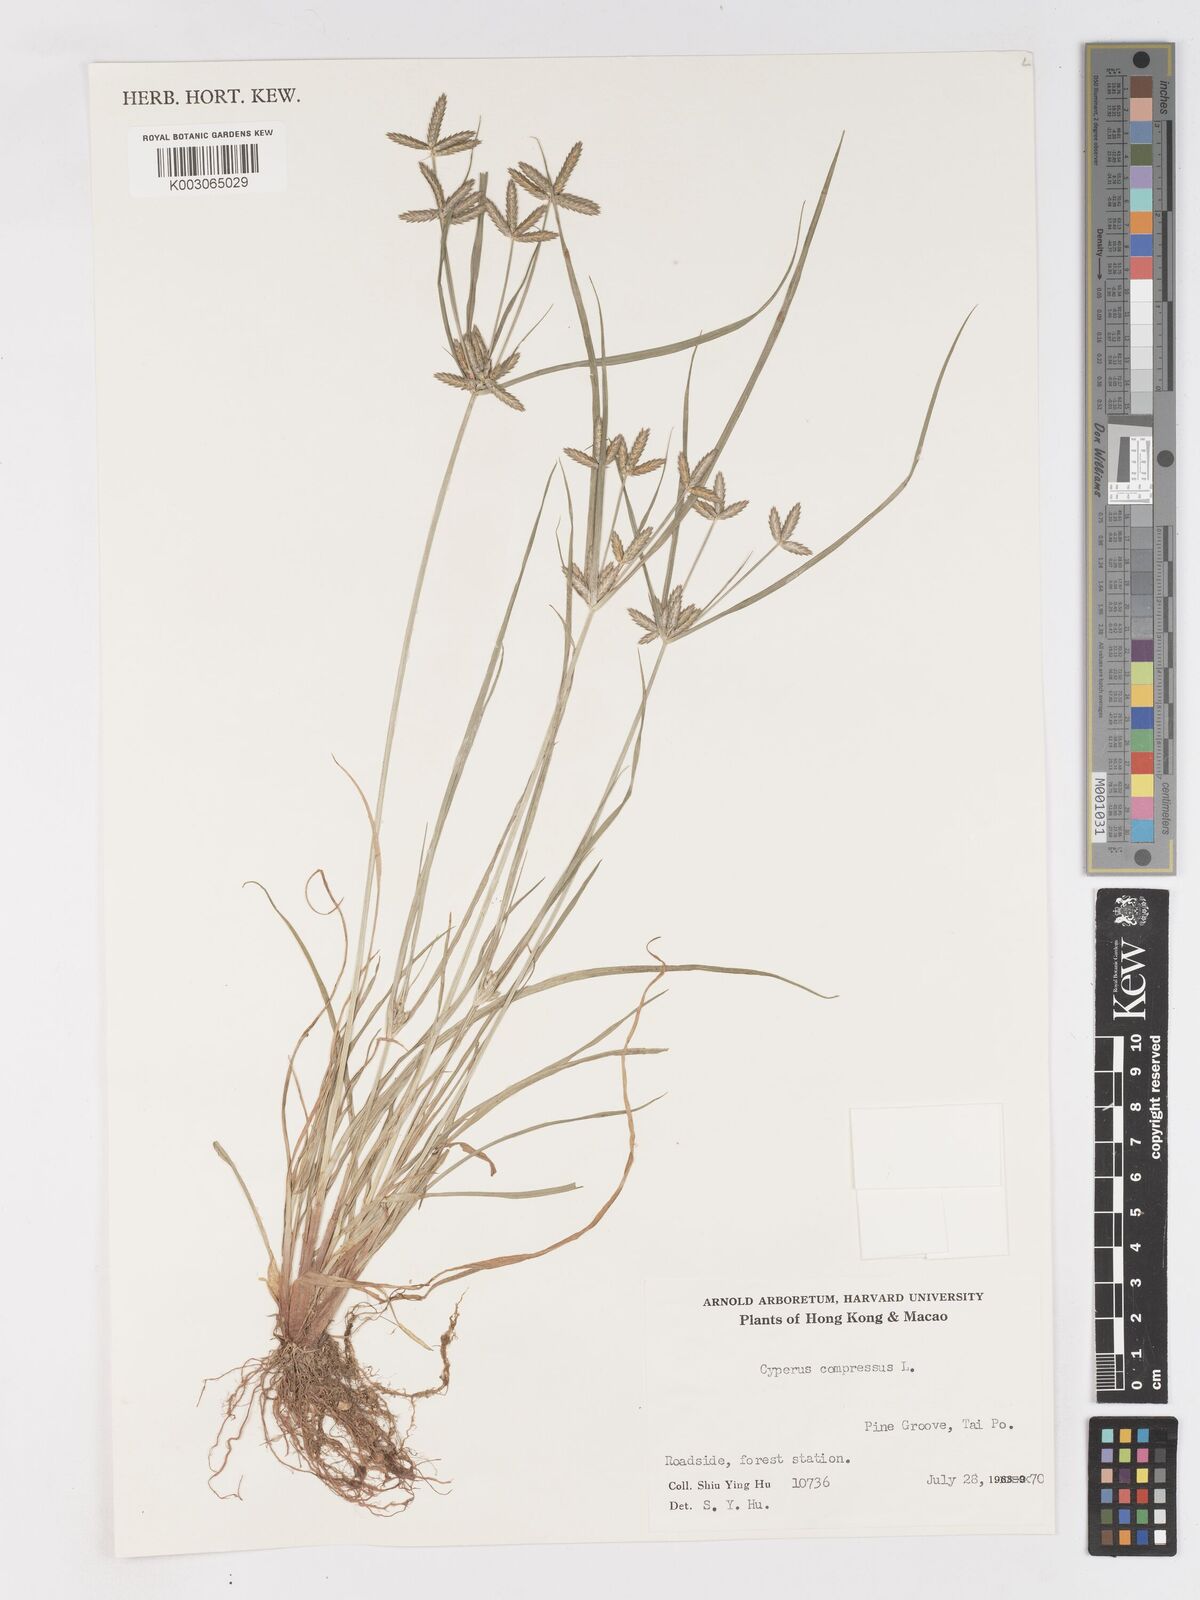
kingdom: Plantae
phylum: Tracheophyta
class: Liliopsida
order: Poales
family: Cyperaceae
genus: Cyperus
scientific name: Cyperus compressus
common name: Poorland flatsedge
